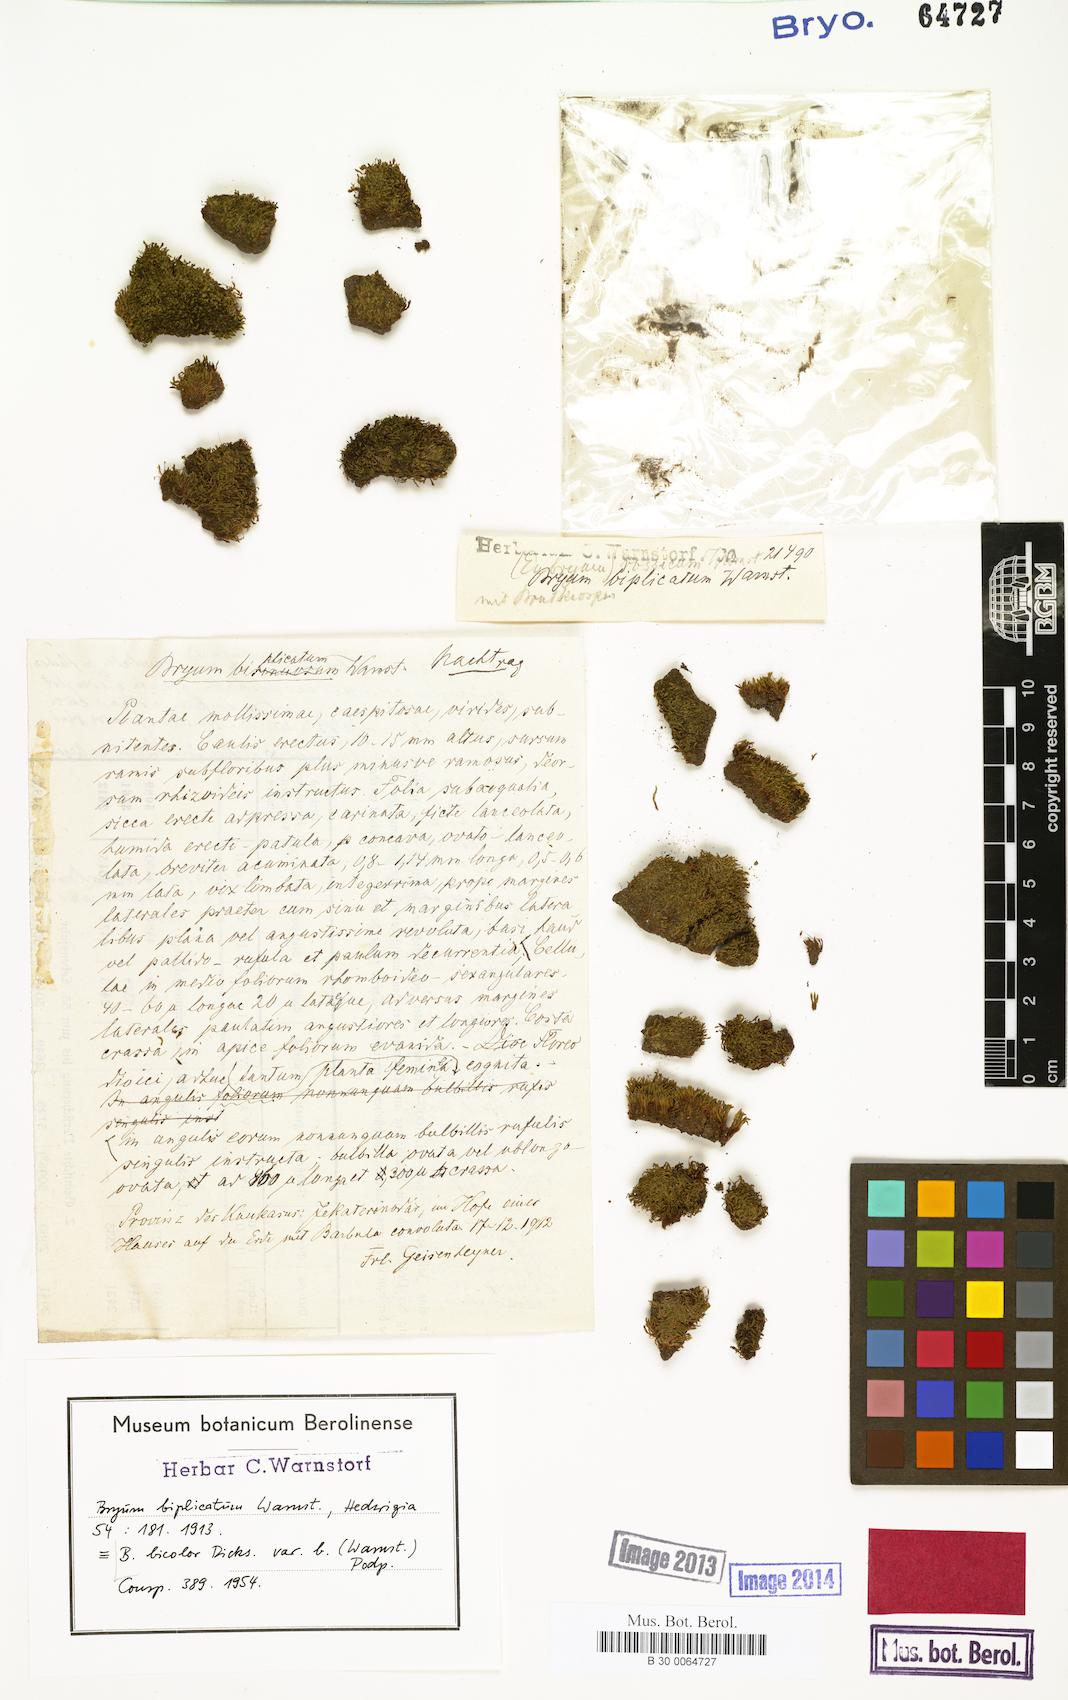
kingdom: Plantae
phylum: Bryophyta
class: Bryopsida
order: Bryales
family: Bryaceae
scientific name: Bryaceae
